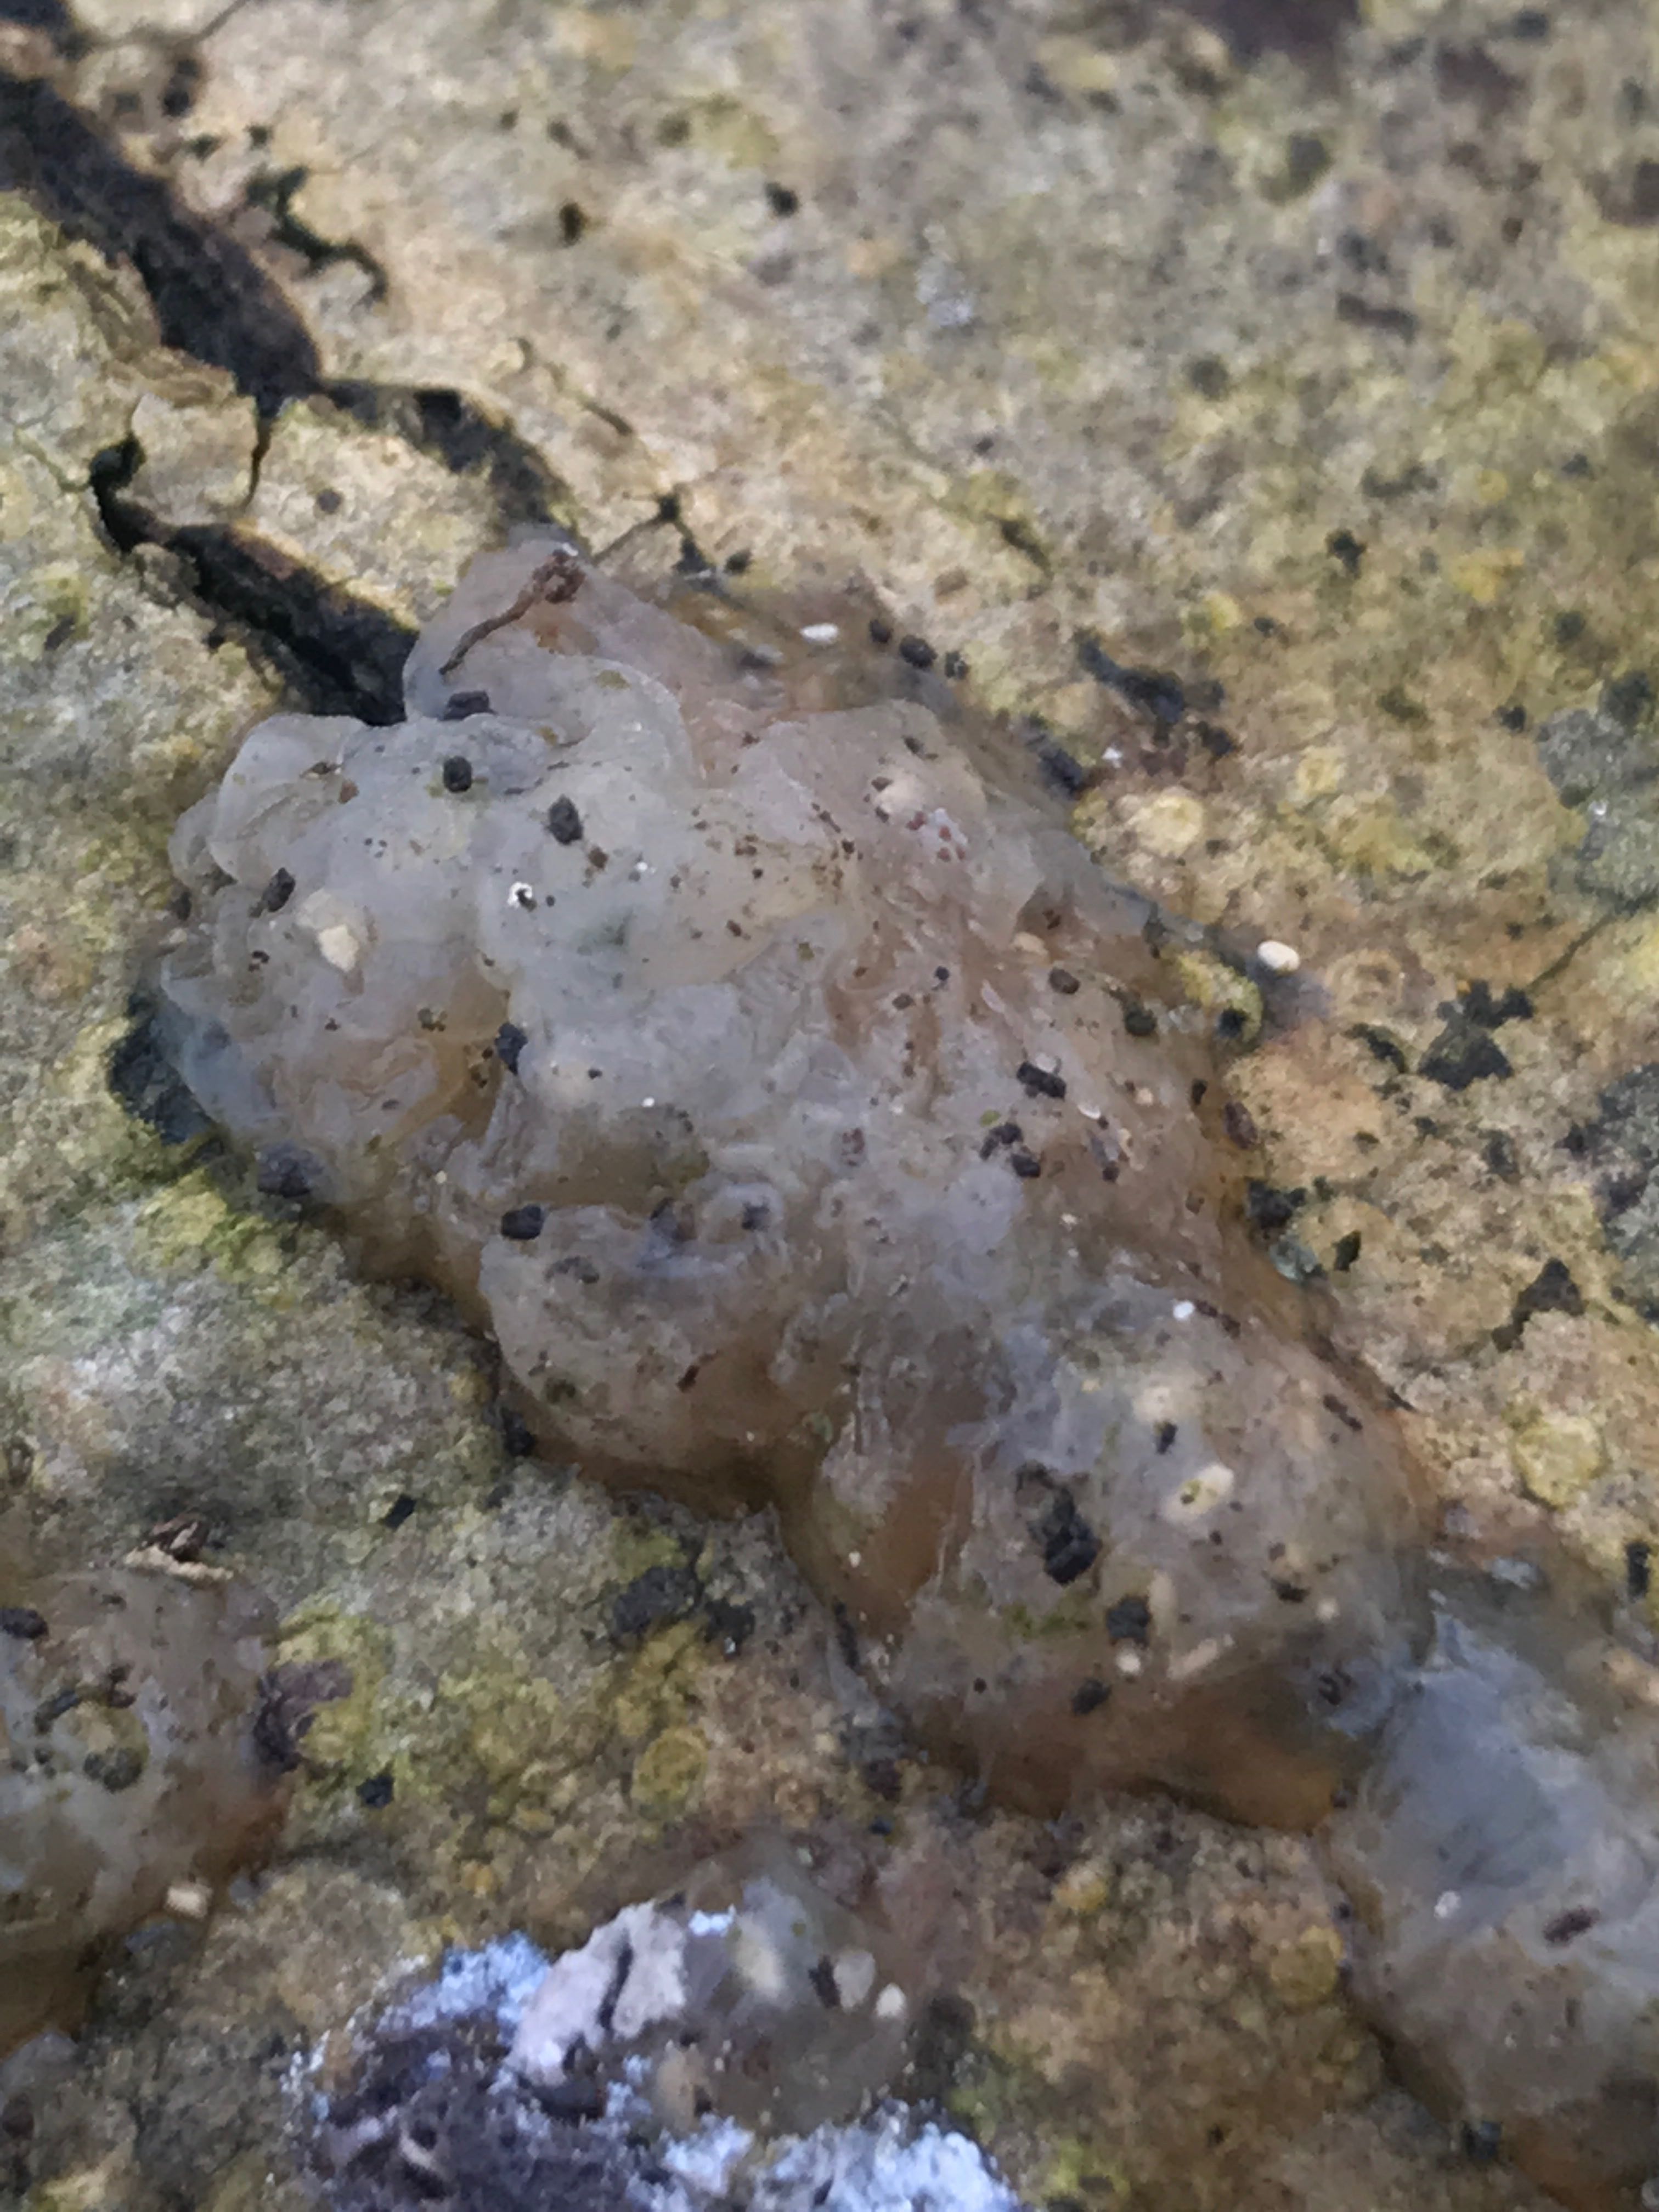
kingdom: Fungi
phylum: Basidiomycota
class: Agaricomycetes
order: Auriculariales
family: Hyaloriaceae
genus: Myxarium
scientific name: Myxarium nucleatum
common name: klar bævretop
